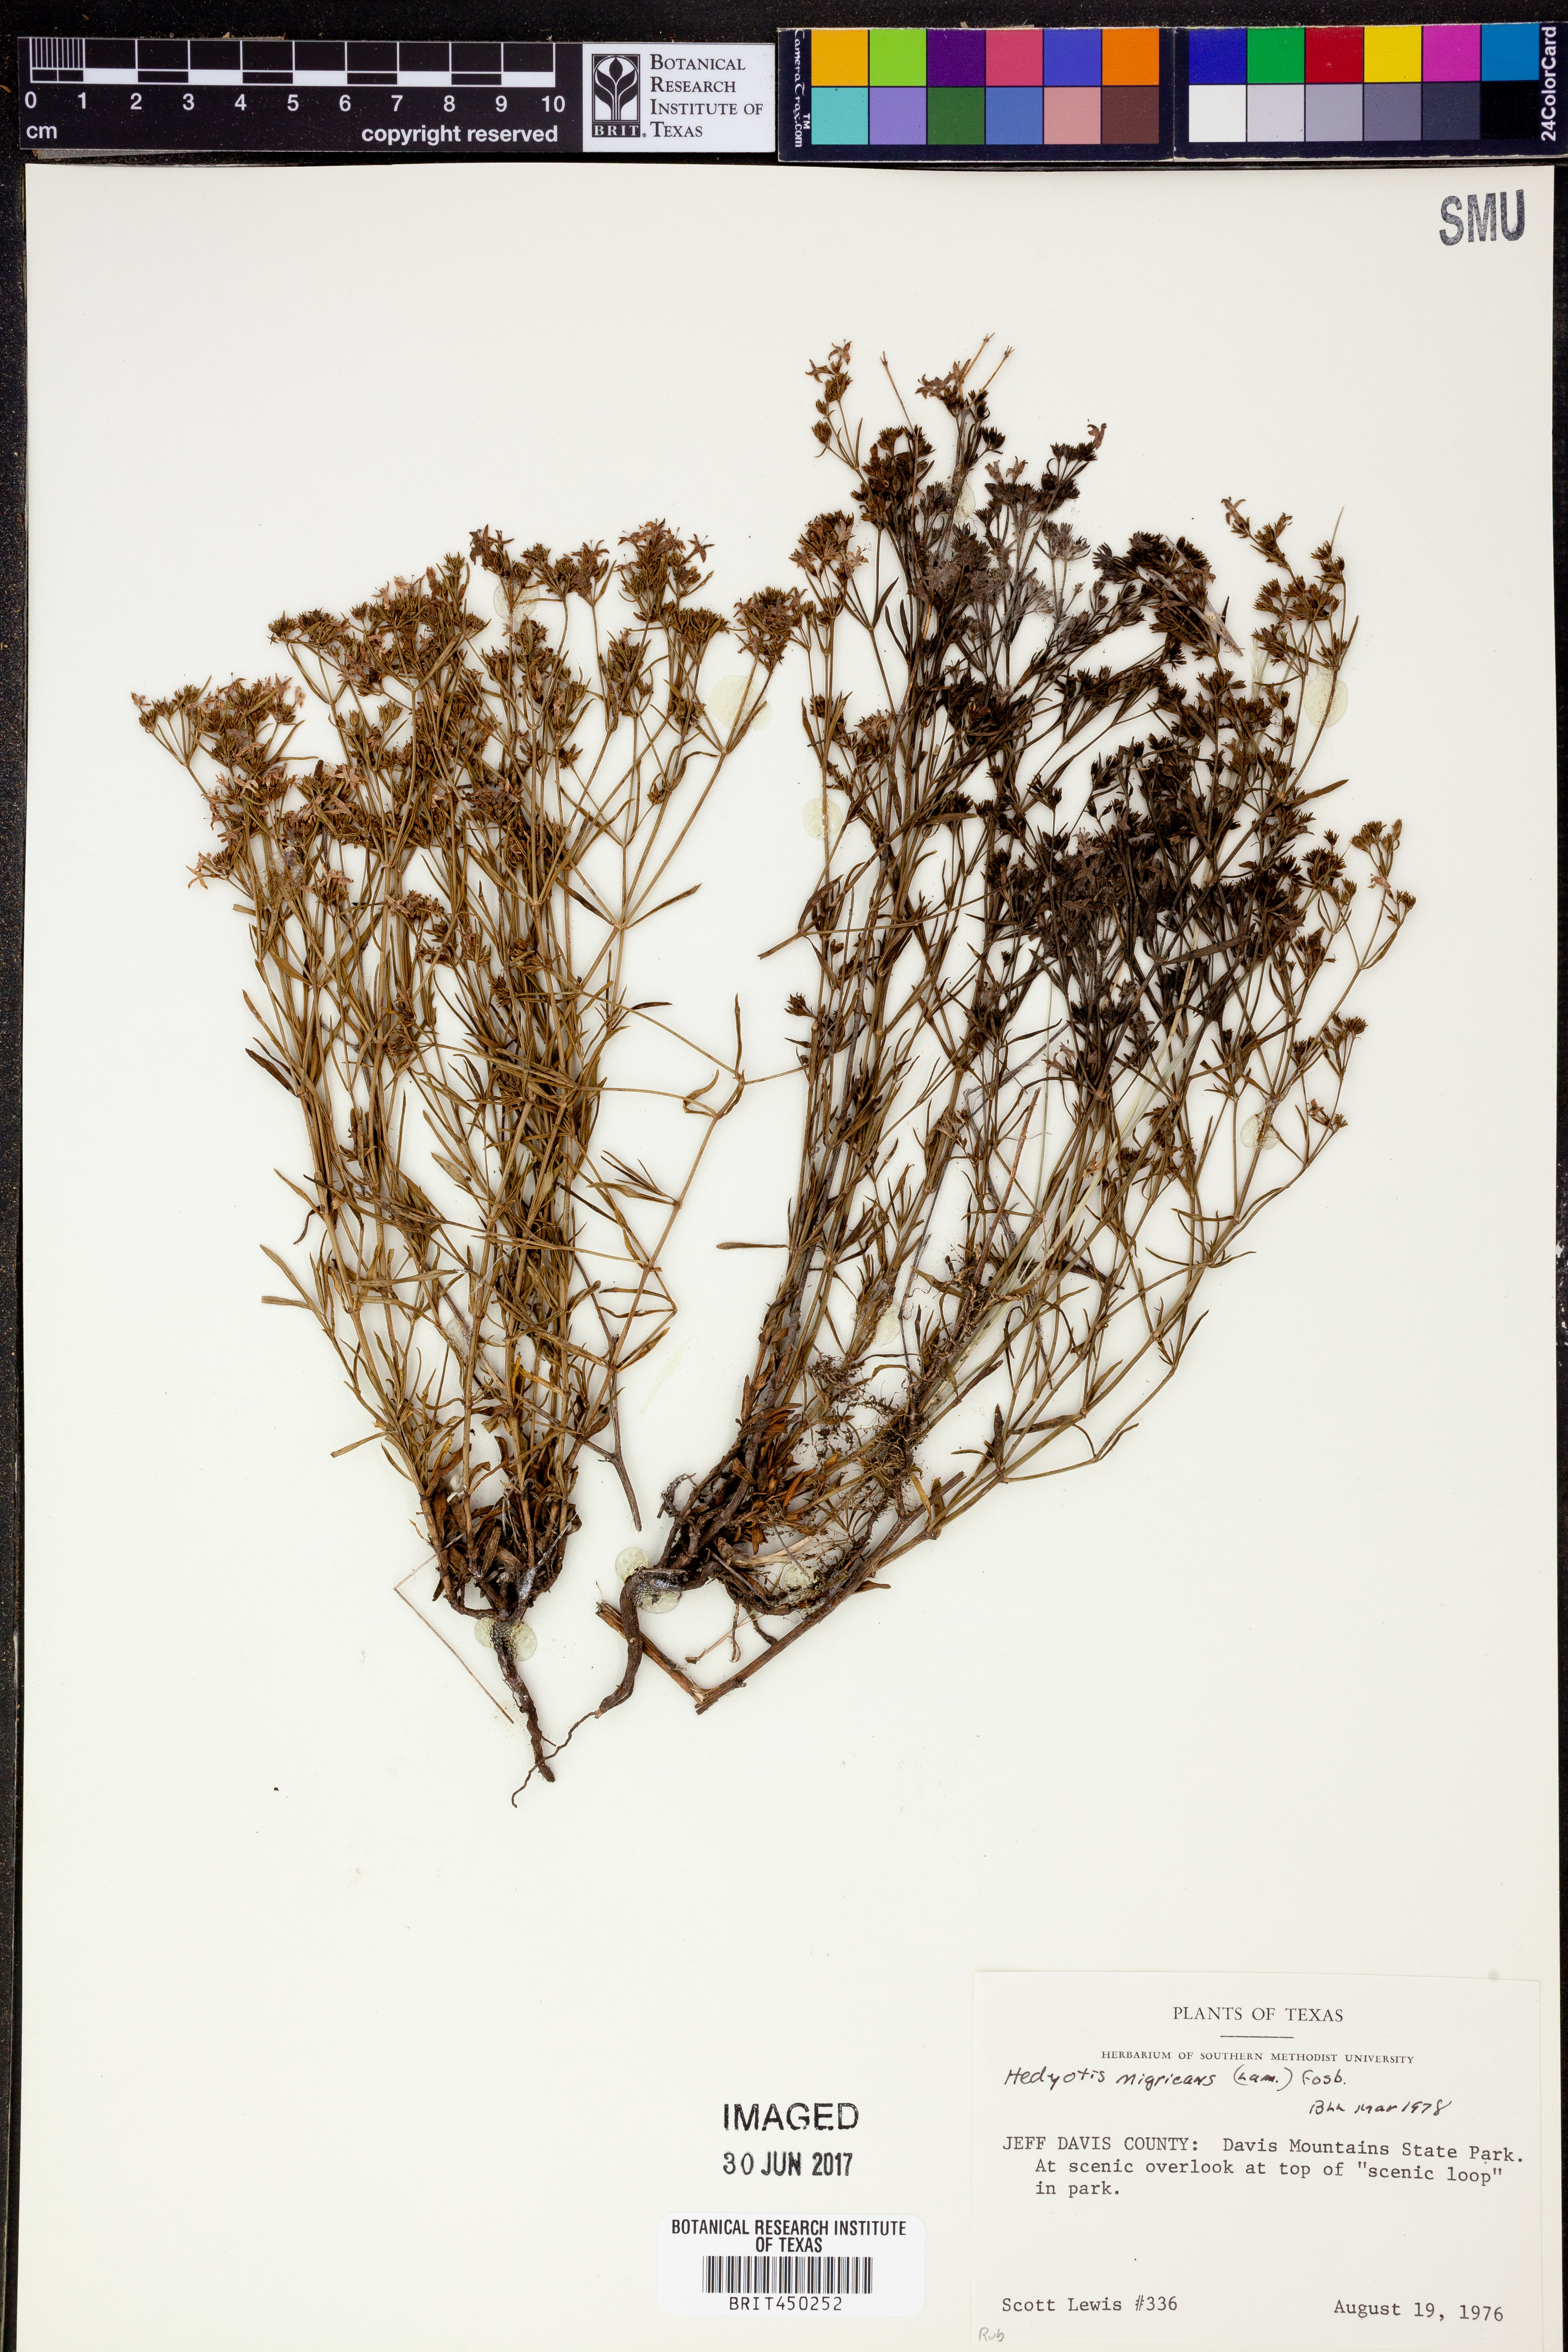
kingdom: Plantae
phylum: Tracheophyta
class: Magnoliopsida
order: Gentianales
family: Rubiaceae
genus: Stenaria
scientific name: Stenaria nigricans
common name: Diamondflowers
